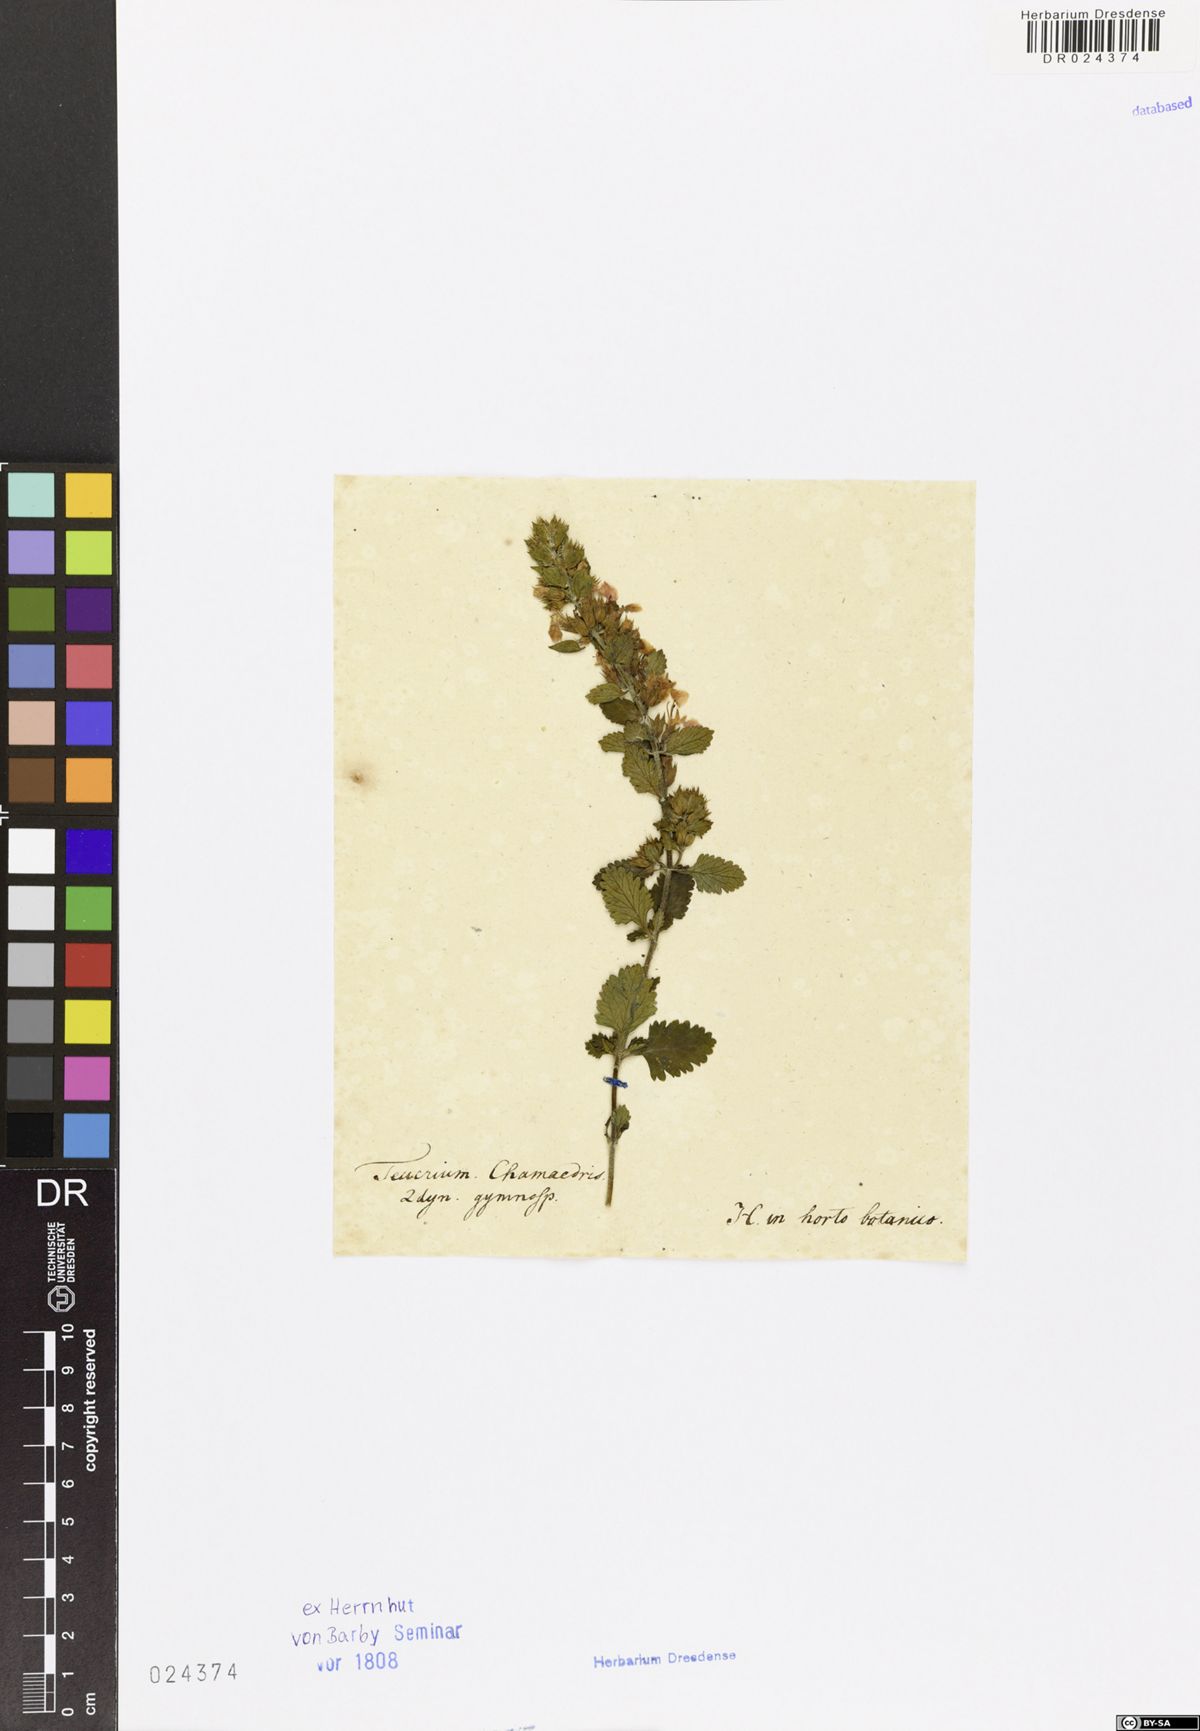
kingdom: Plantae
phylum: Tracheophyta
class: Magnoliopsida
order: Lamiales
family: Lamiaceae
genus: Teucrium
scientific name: Teucrium chamaedrys
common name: Wall germander
